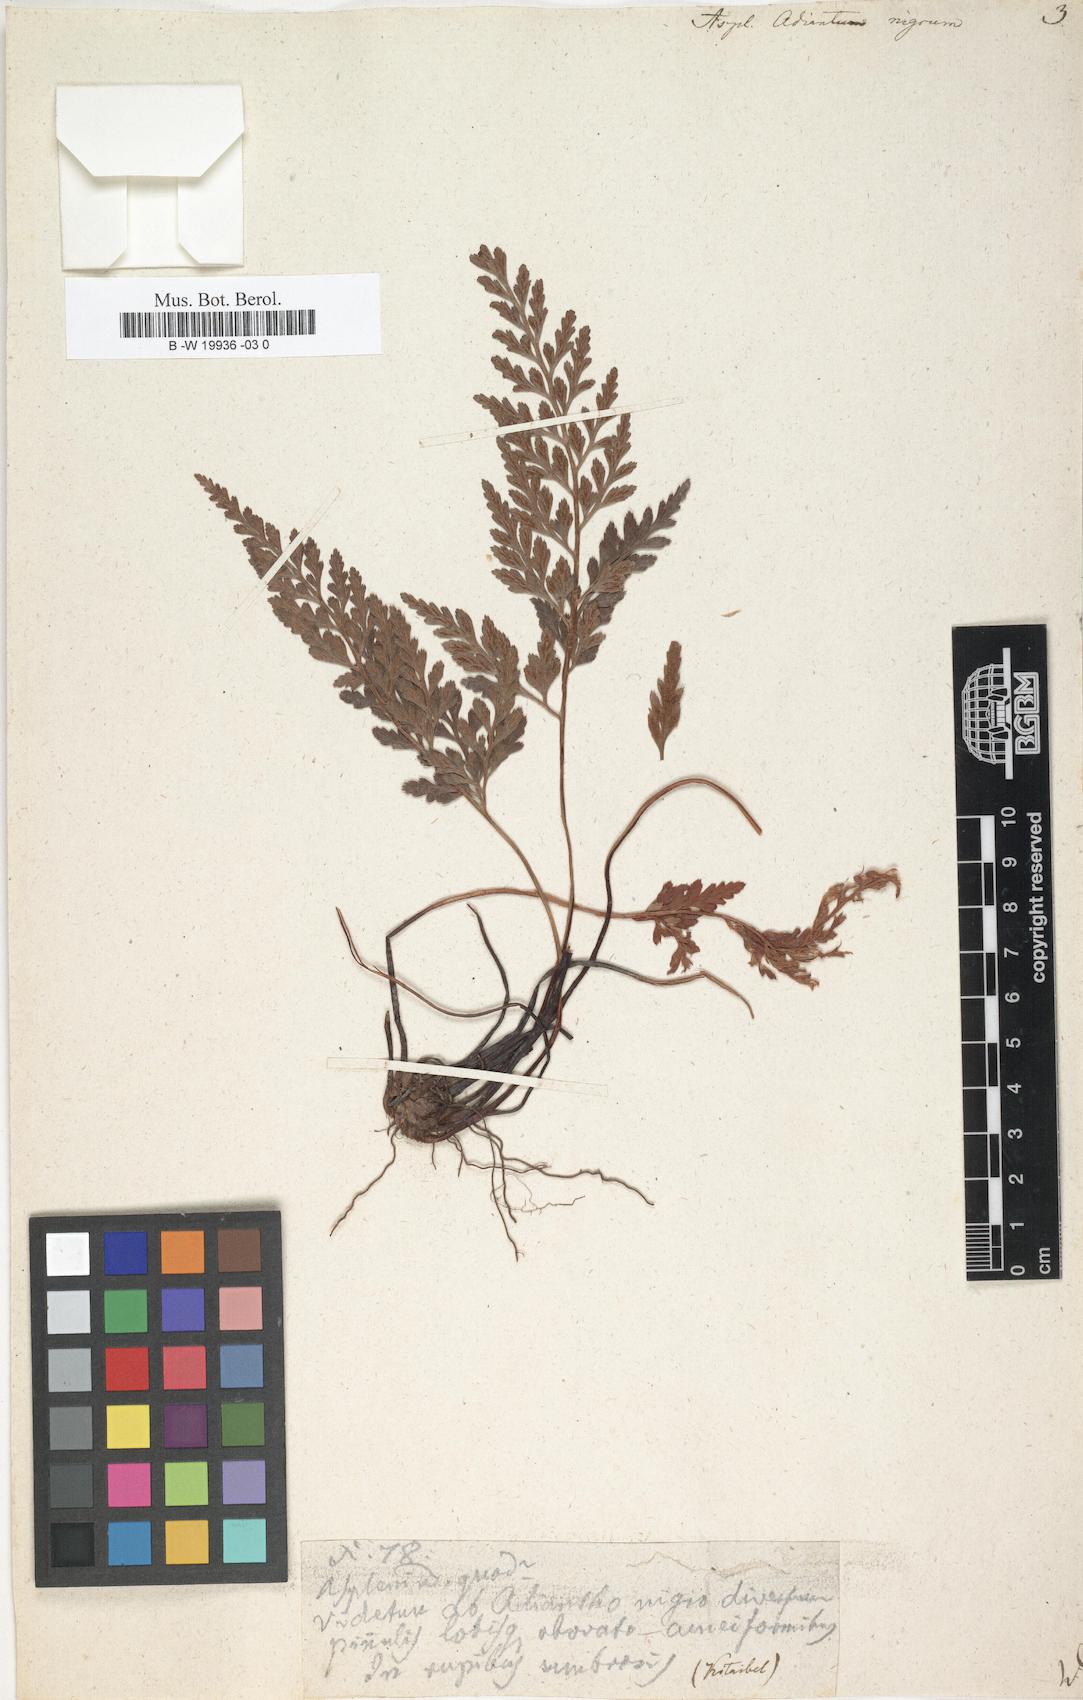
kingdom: Plantae
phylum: Tracheophyta
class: Polypodiopsida
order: Polypodiales
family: Aspleniaceae
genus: Asplenium
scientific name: Asplenium adiantum-nigrum
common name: Black spleenwort
